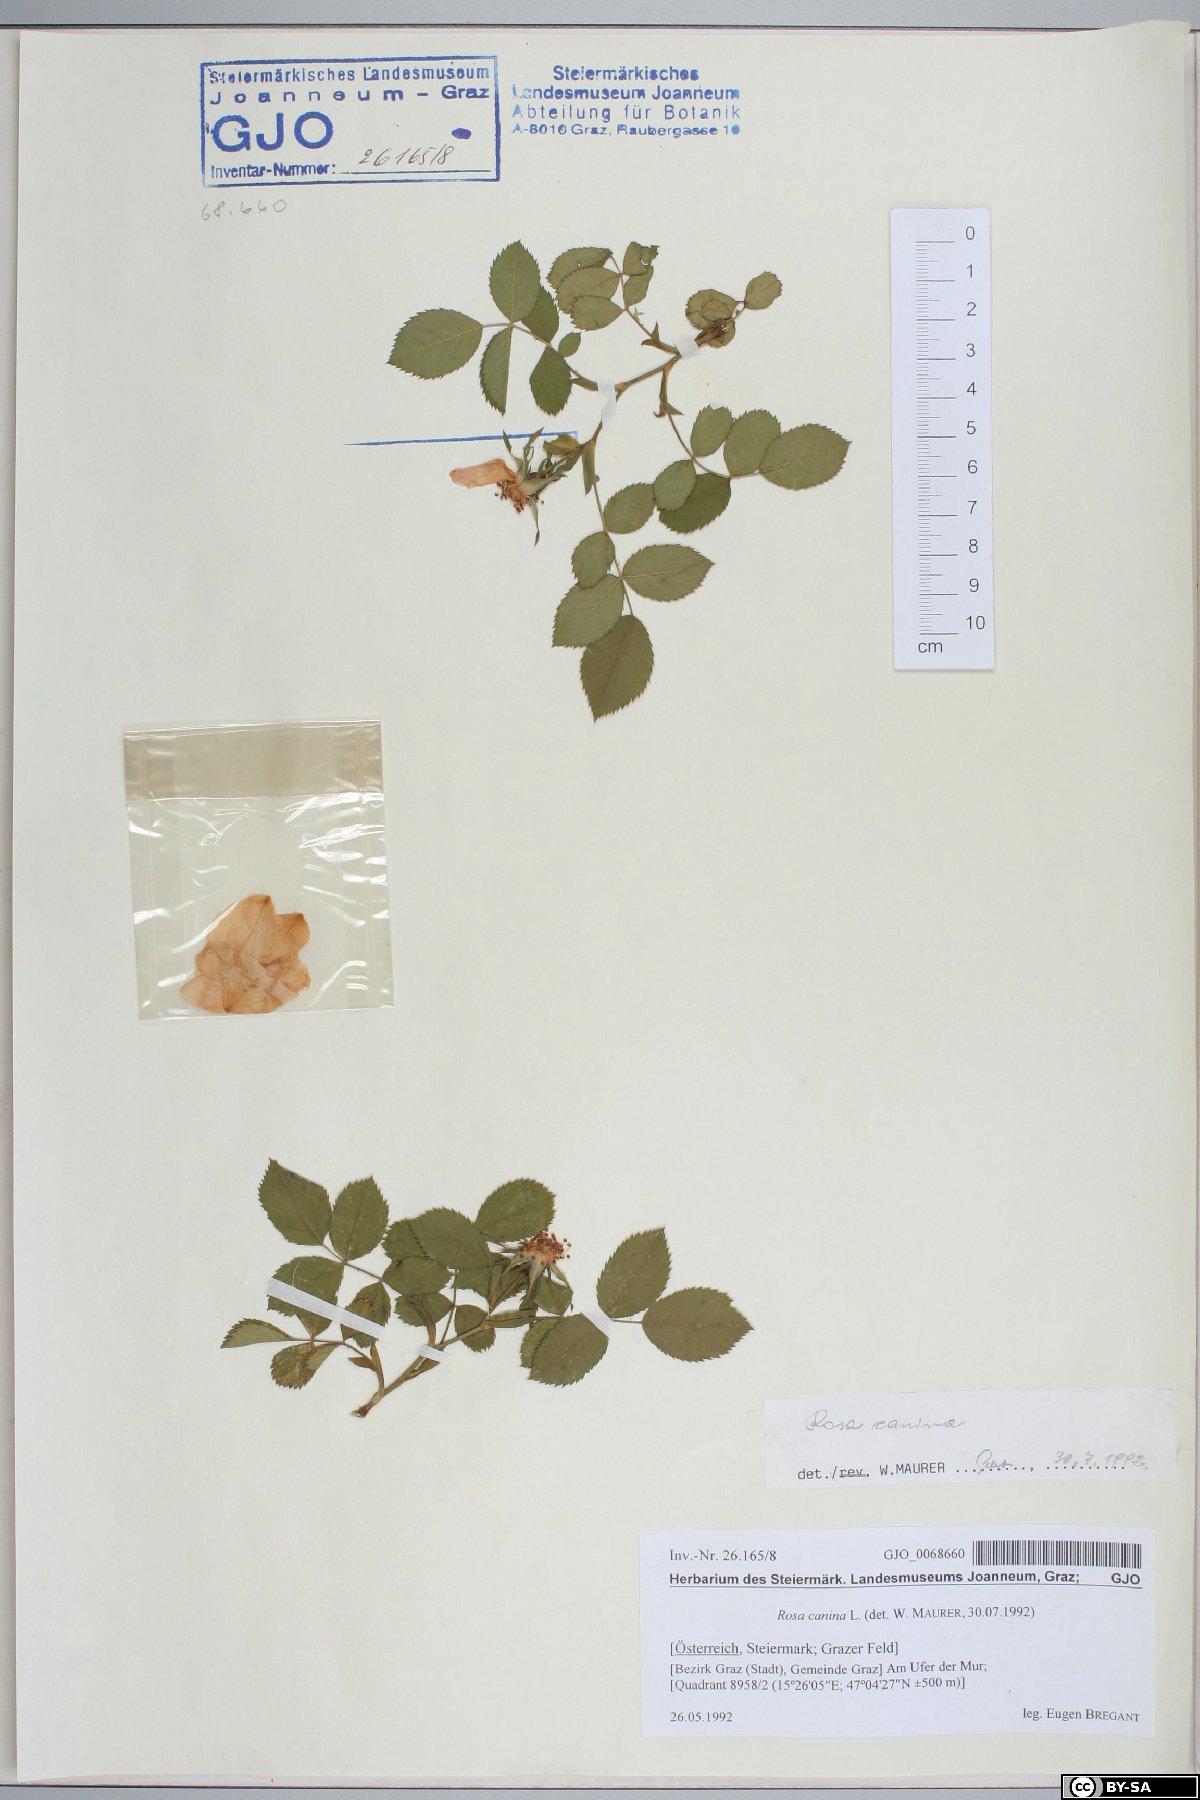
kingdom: Plantae
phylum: Tracheophyta
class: Magnoliopsida
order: Rosales
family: Rosaceae
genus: Rosa
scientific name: Rosa canina
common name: Dog rose
